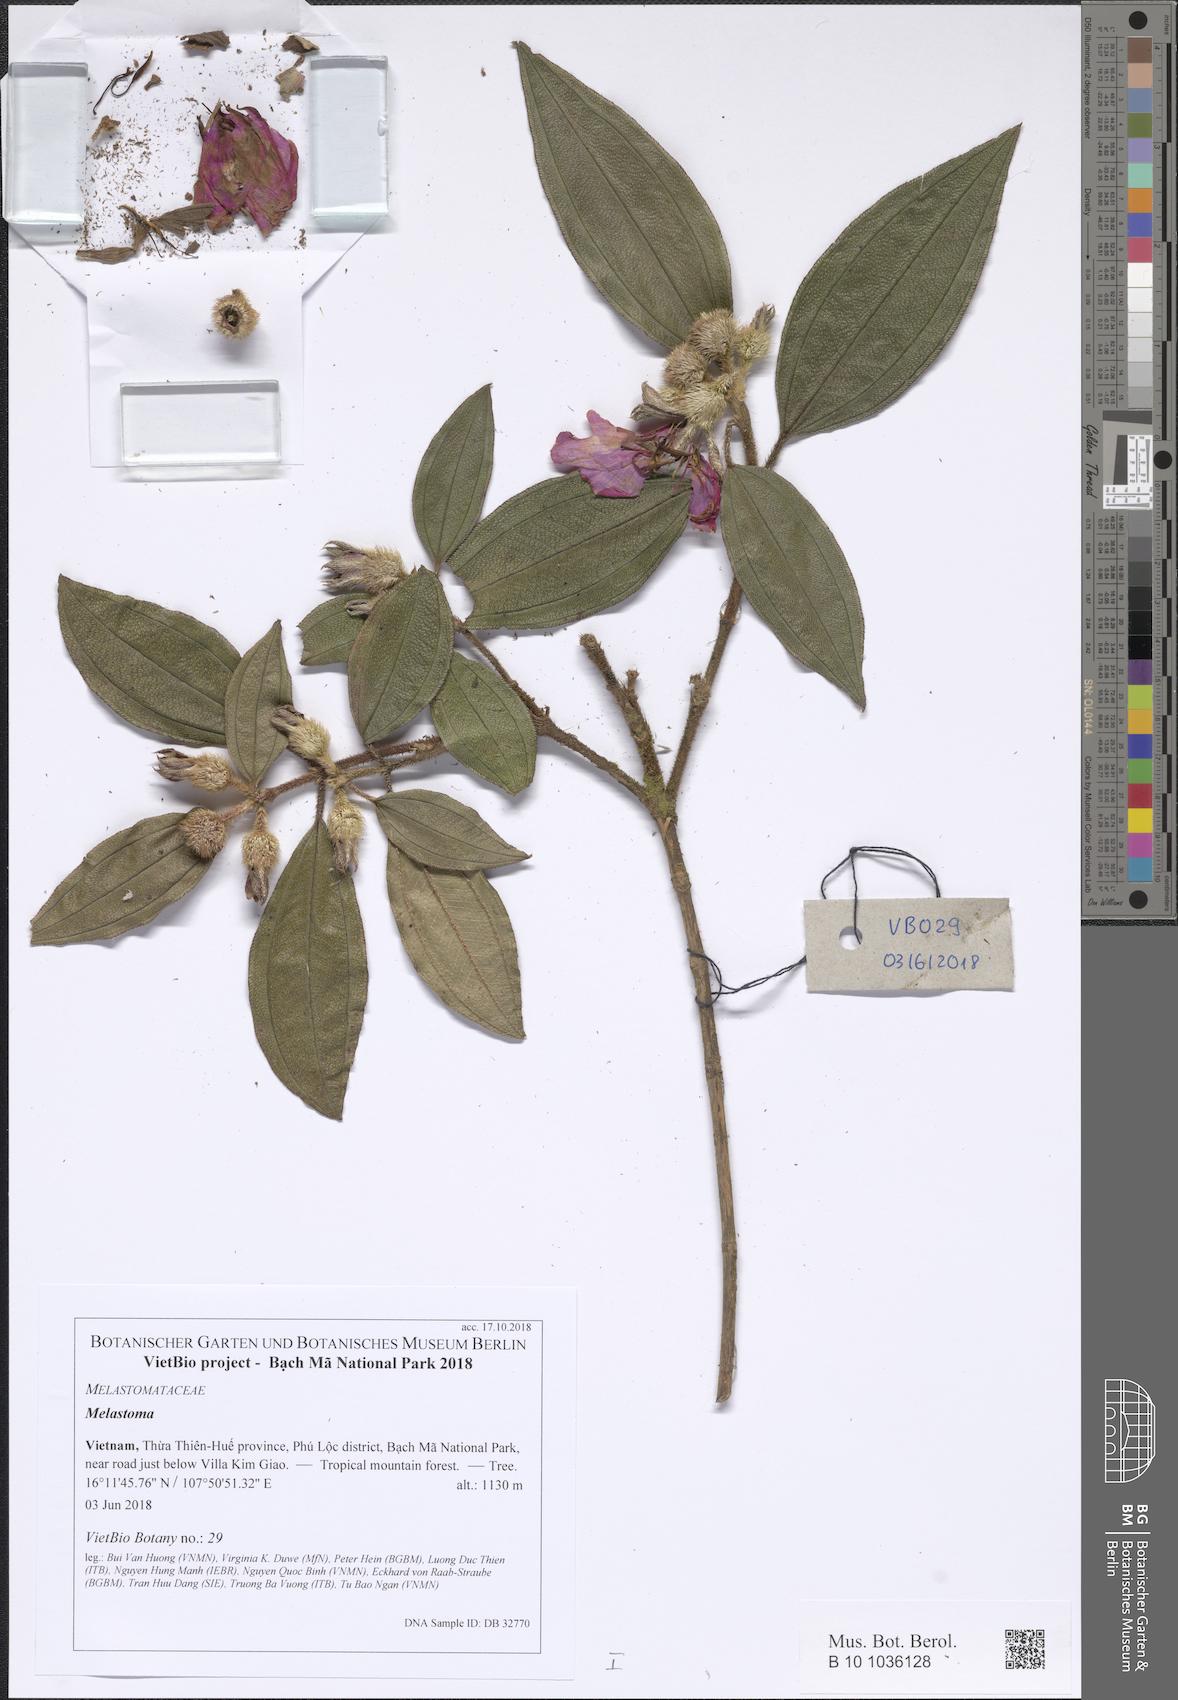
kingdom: Plantae
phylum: Tracheophyta
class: Magnoliopsida
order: Myrtales
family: Melastomataceae
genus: Melastoma
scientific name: Melastoma
